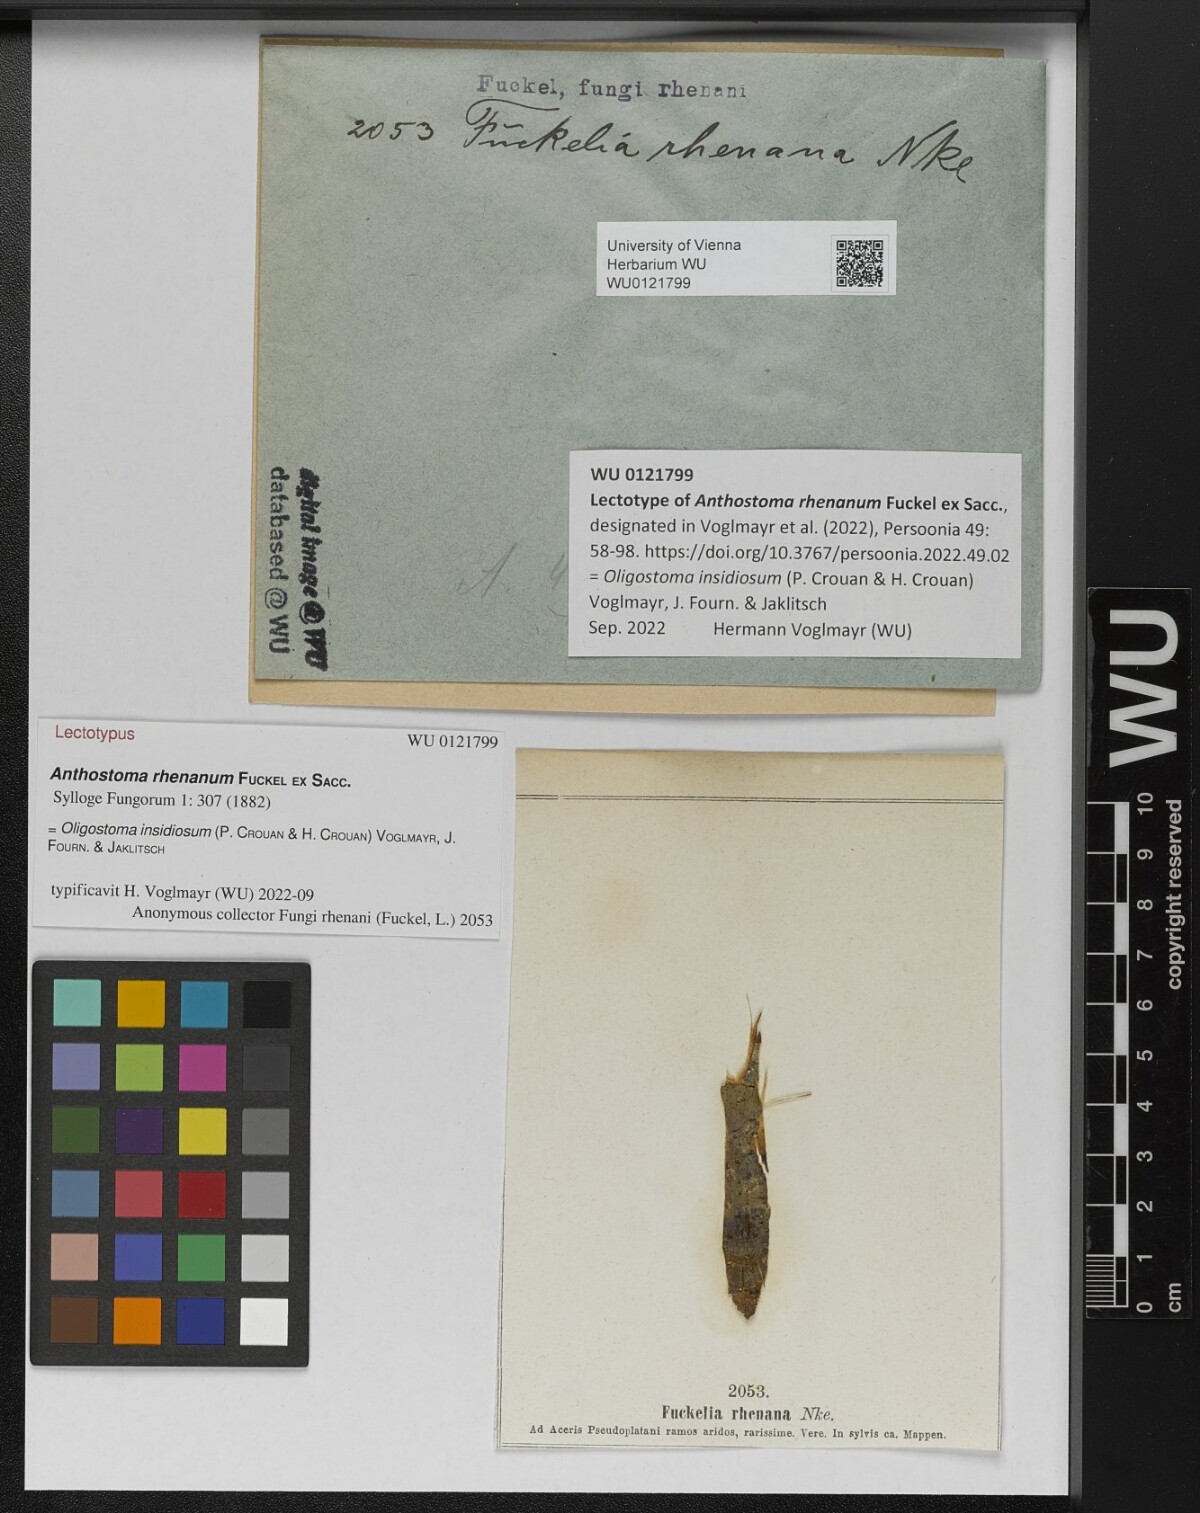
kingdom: Fungi
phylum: Ascomycota
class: Sordariomycetes
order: Xylariales
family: Diatrypaceae
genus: Anthostoma
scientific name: Anthostoma
